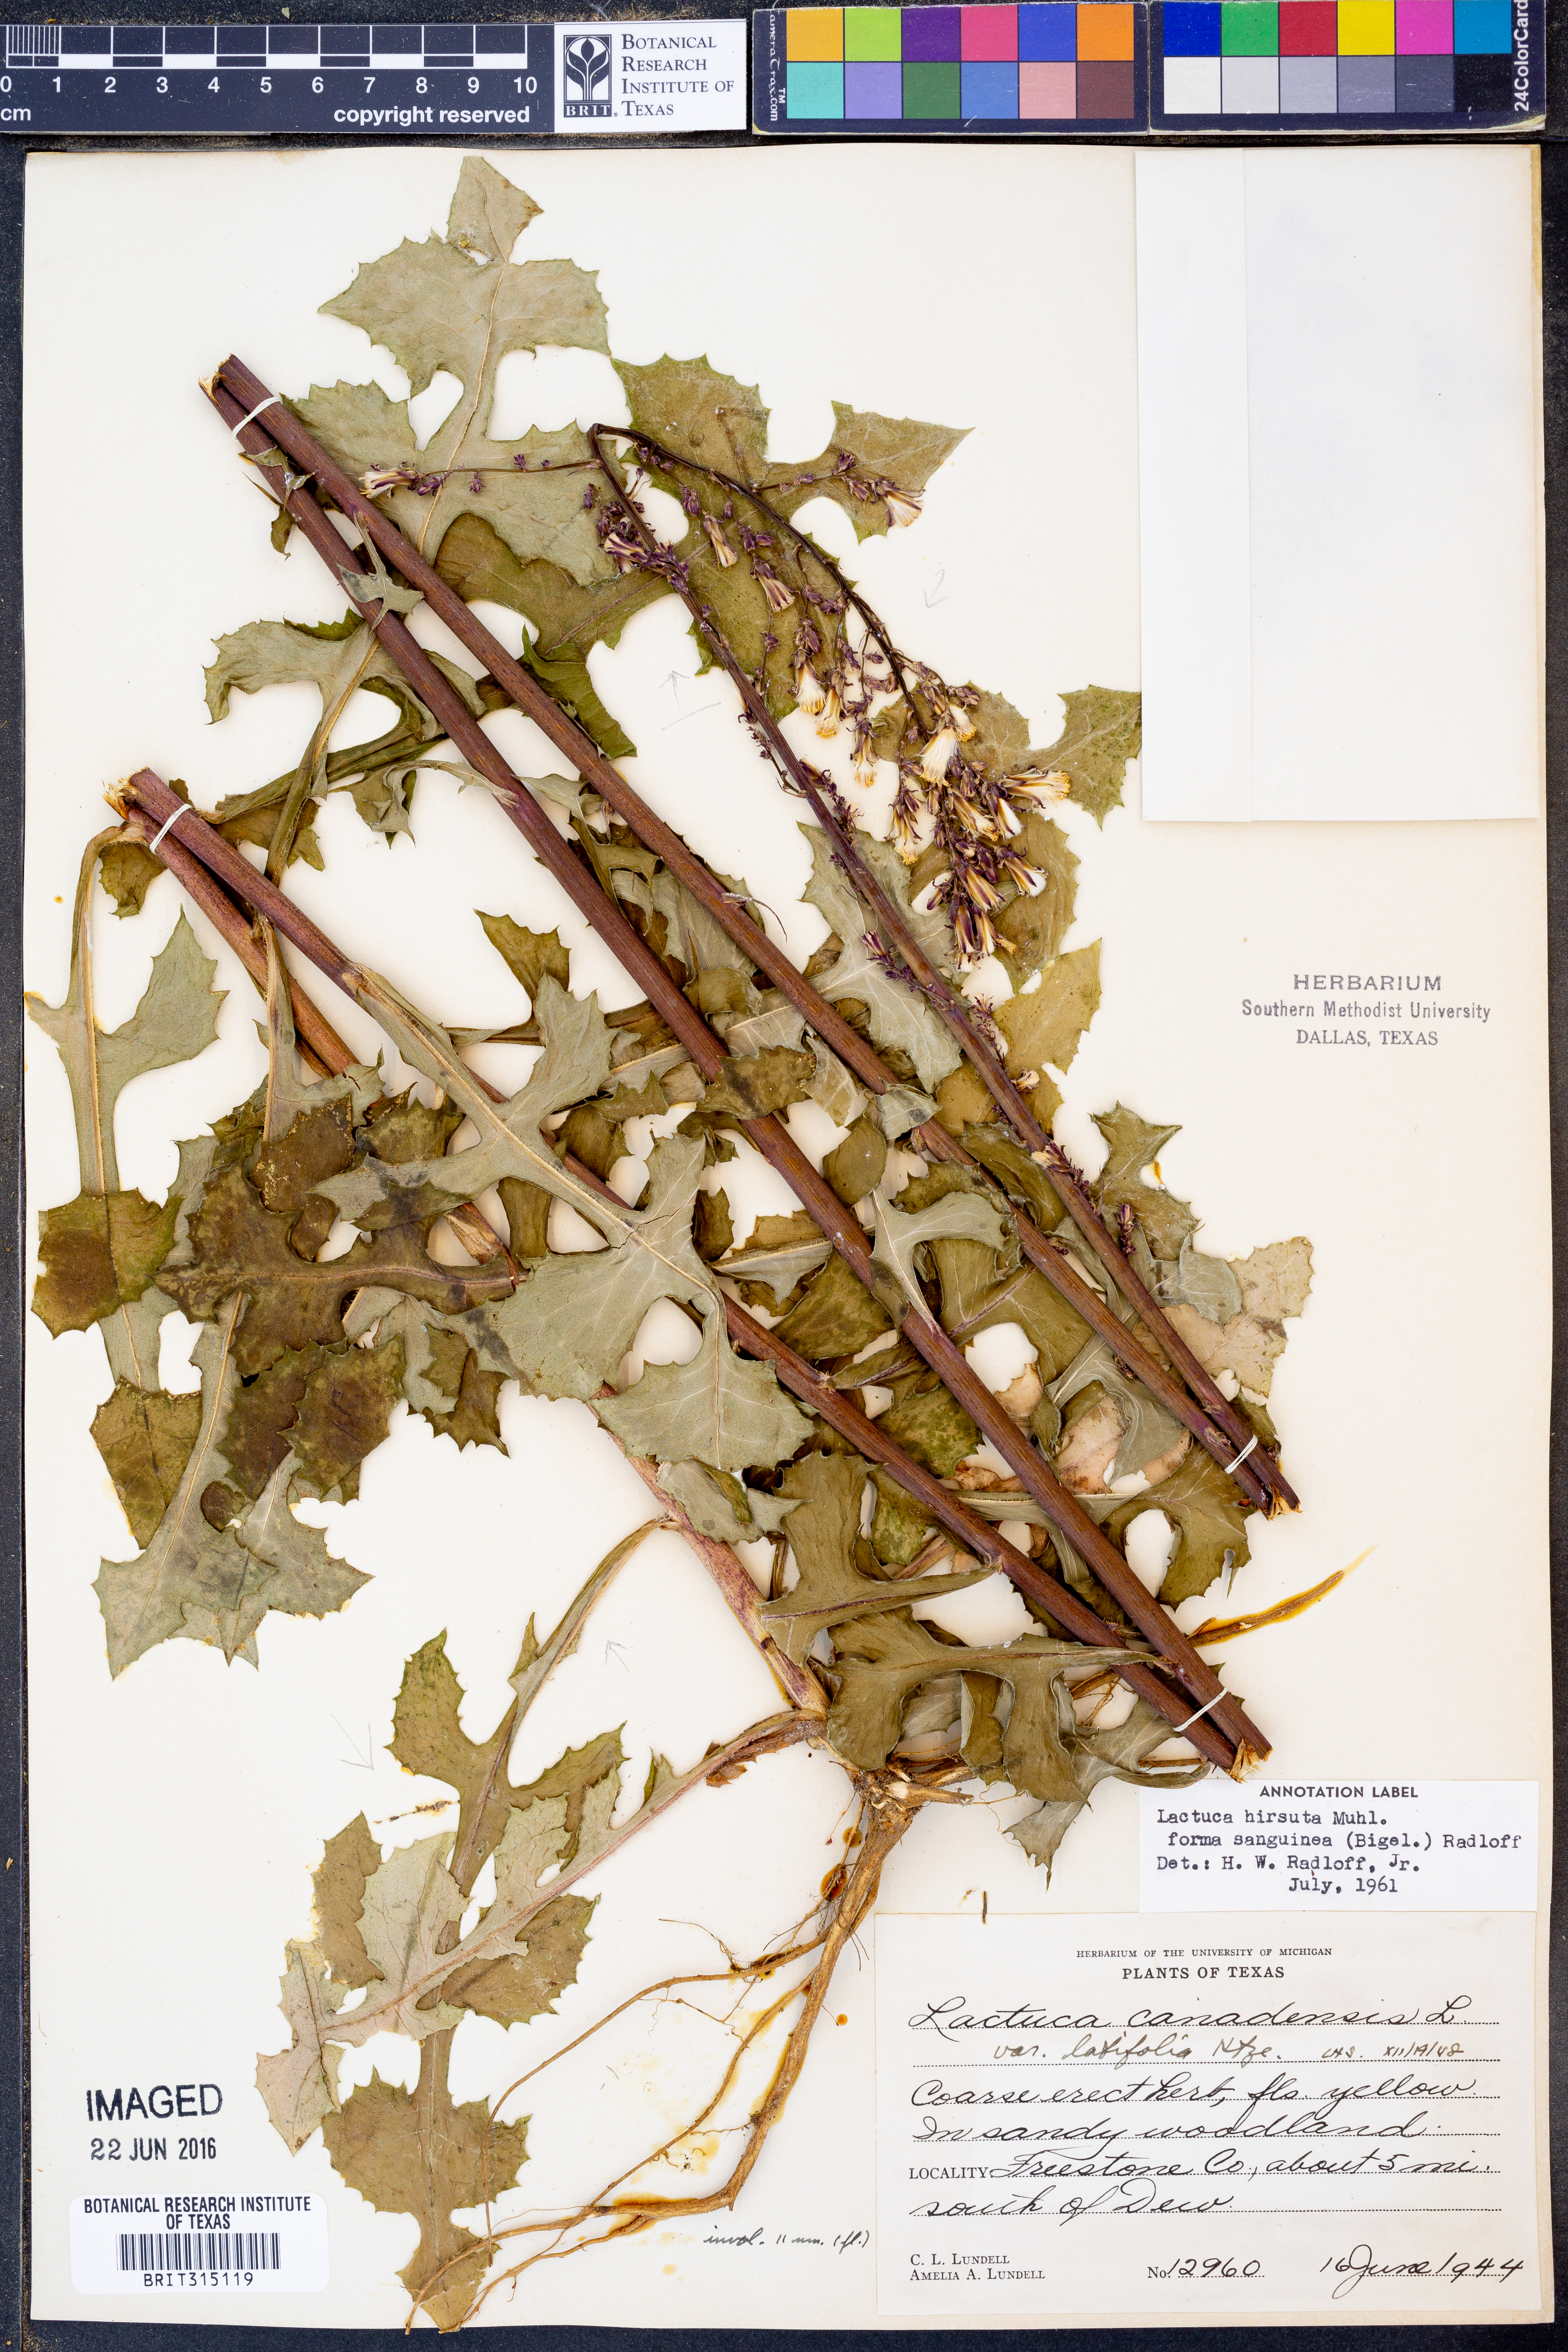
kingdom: Plantae
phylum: Tracheophyta
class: Magnoliopsida
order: Asterales
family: Asteraceae
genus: Lactuca
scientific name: Lactuca hirsuta
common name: Hairy lettuce
